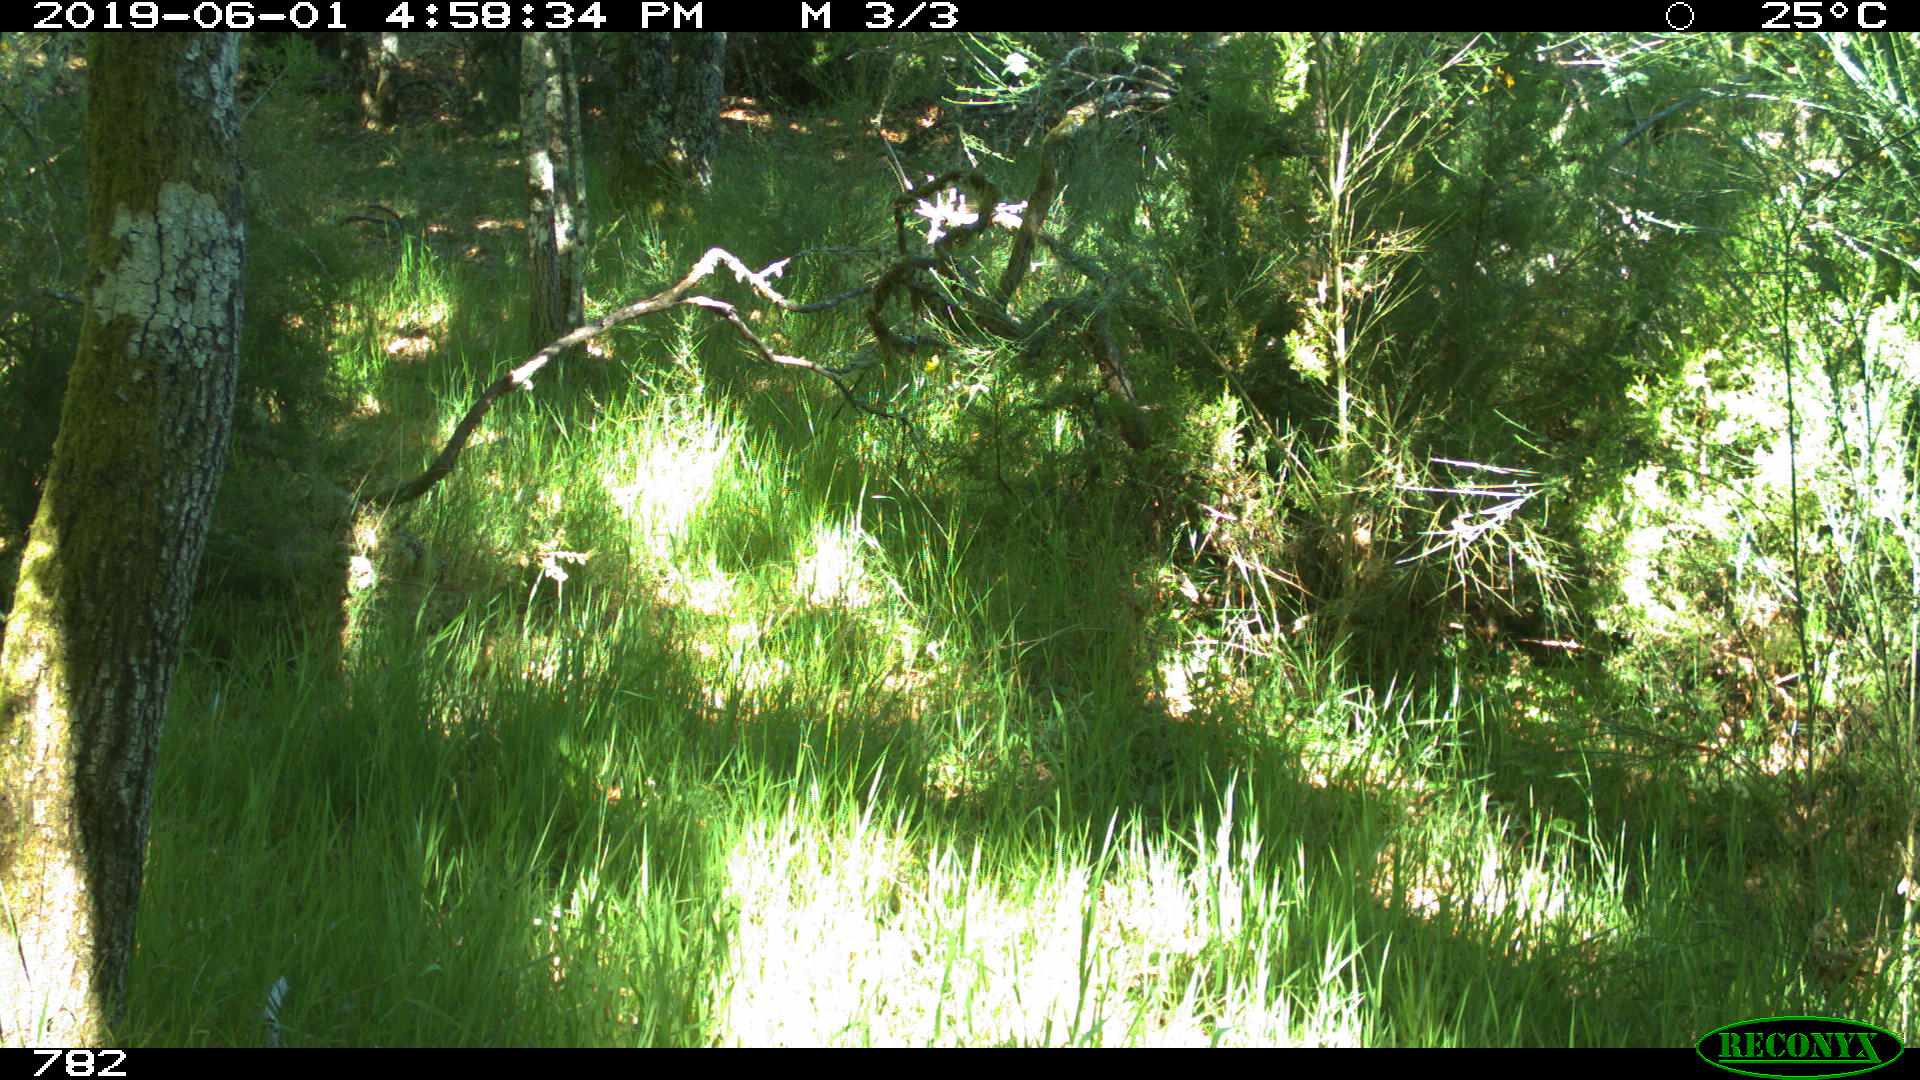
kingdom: Animalia
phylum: Chordata
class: Mammalia
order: Artiodactyla
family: Cervidae
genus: Capreolus
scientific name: Capreolus capreolus
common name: Western roe deer
